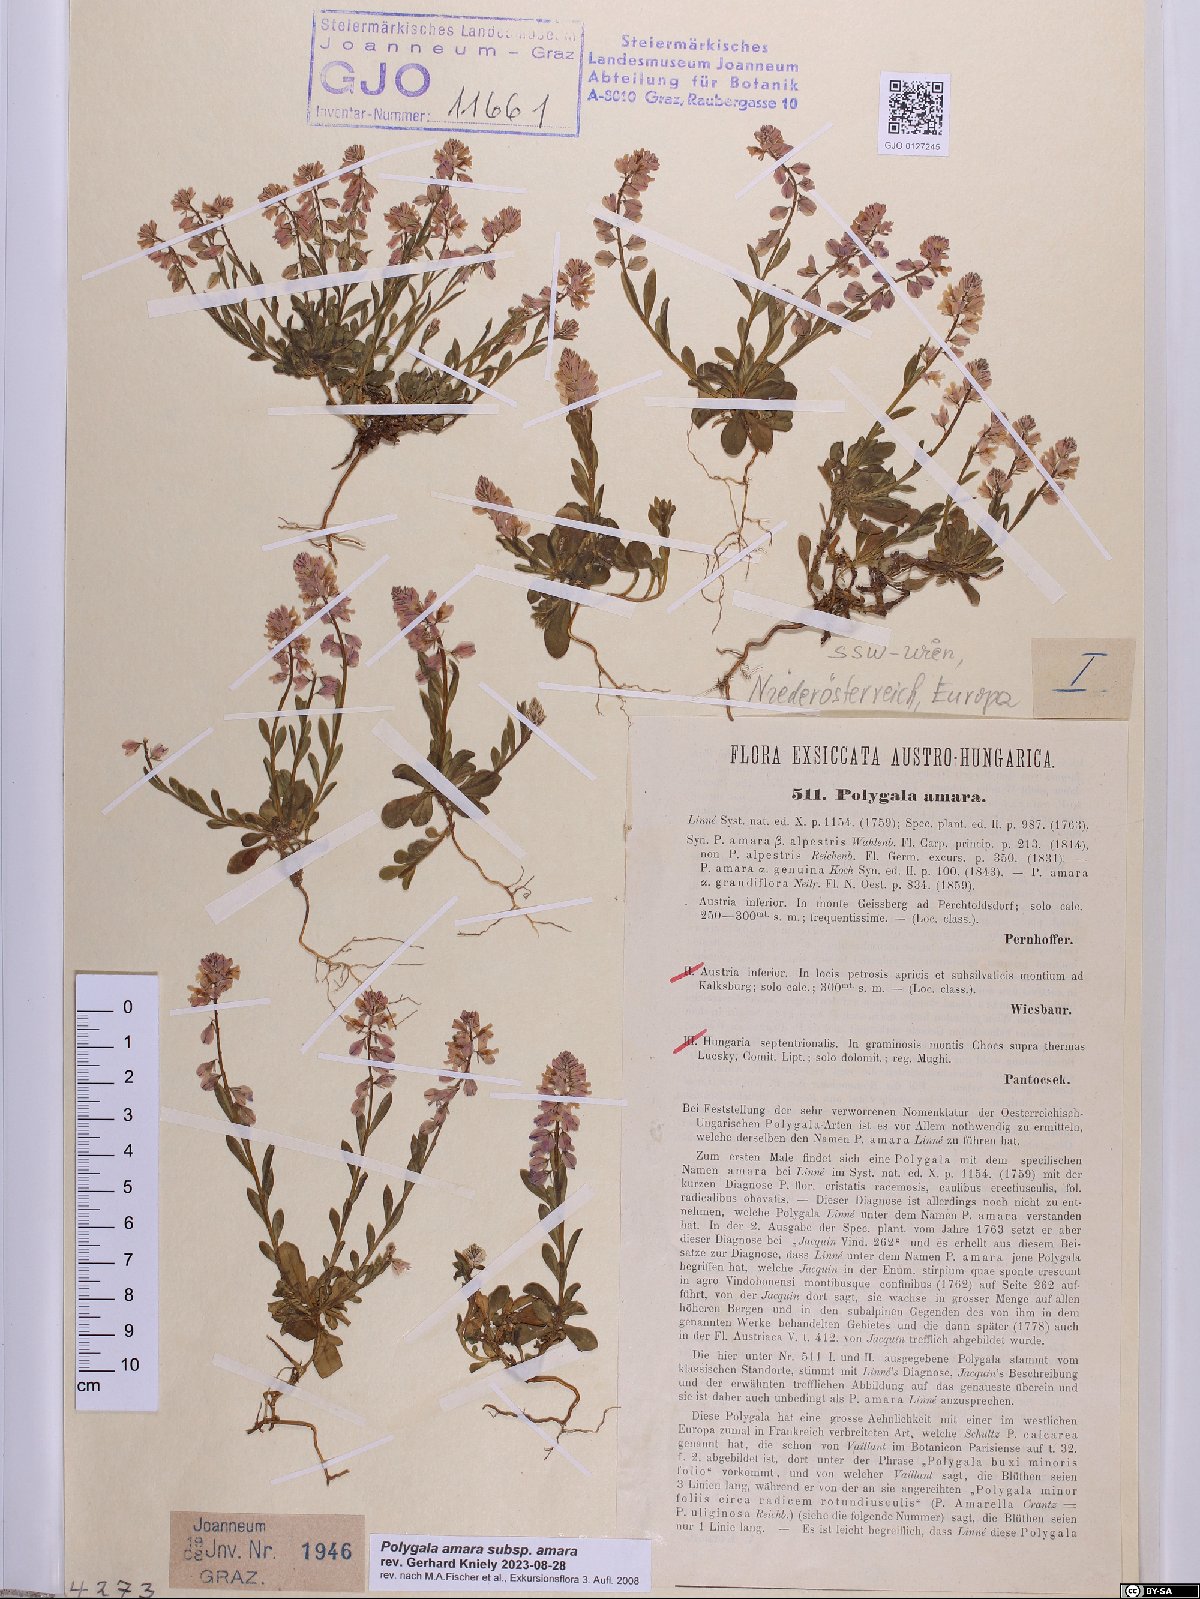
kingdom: Plantae
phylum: Tracheophyta
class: Magnoliopsida
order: Fabales
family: Polygalaceae
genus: Polygala
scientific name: Polygala amara
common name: Milkwort
